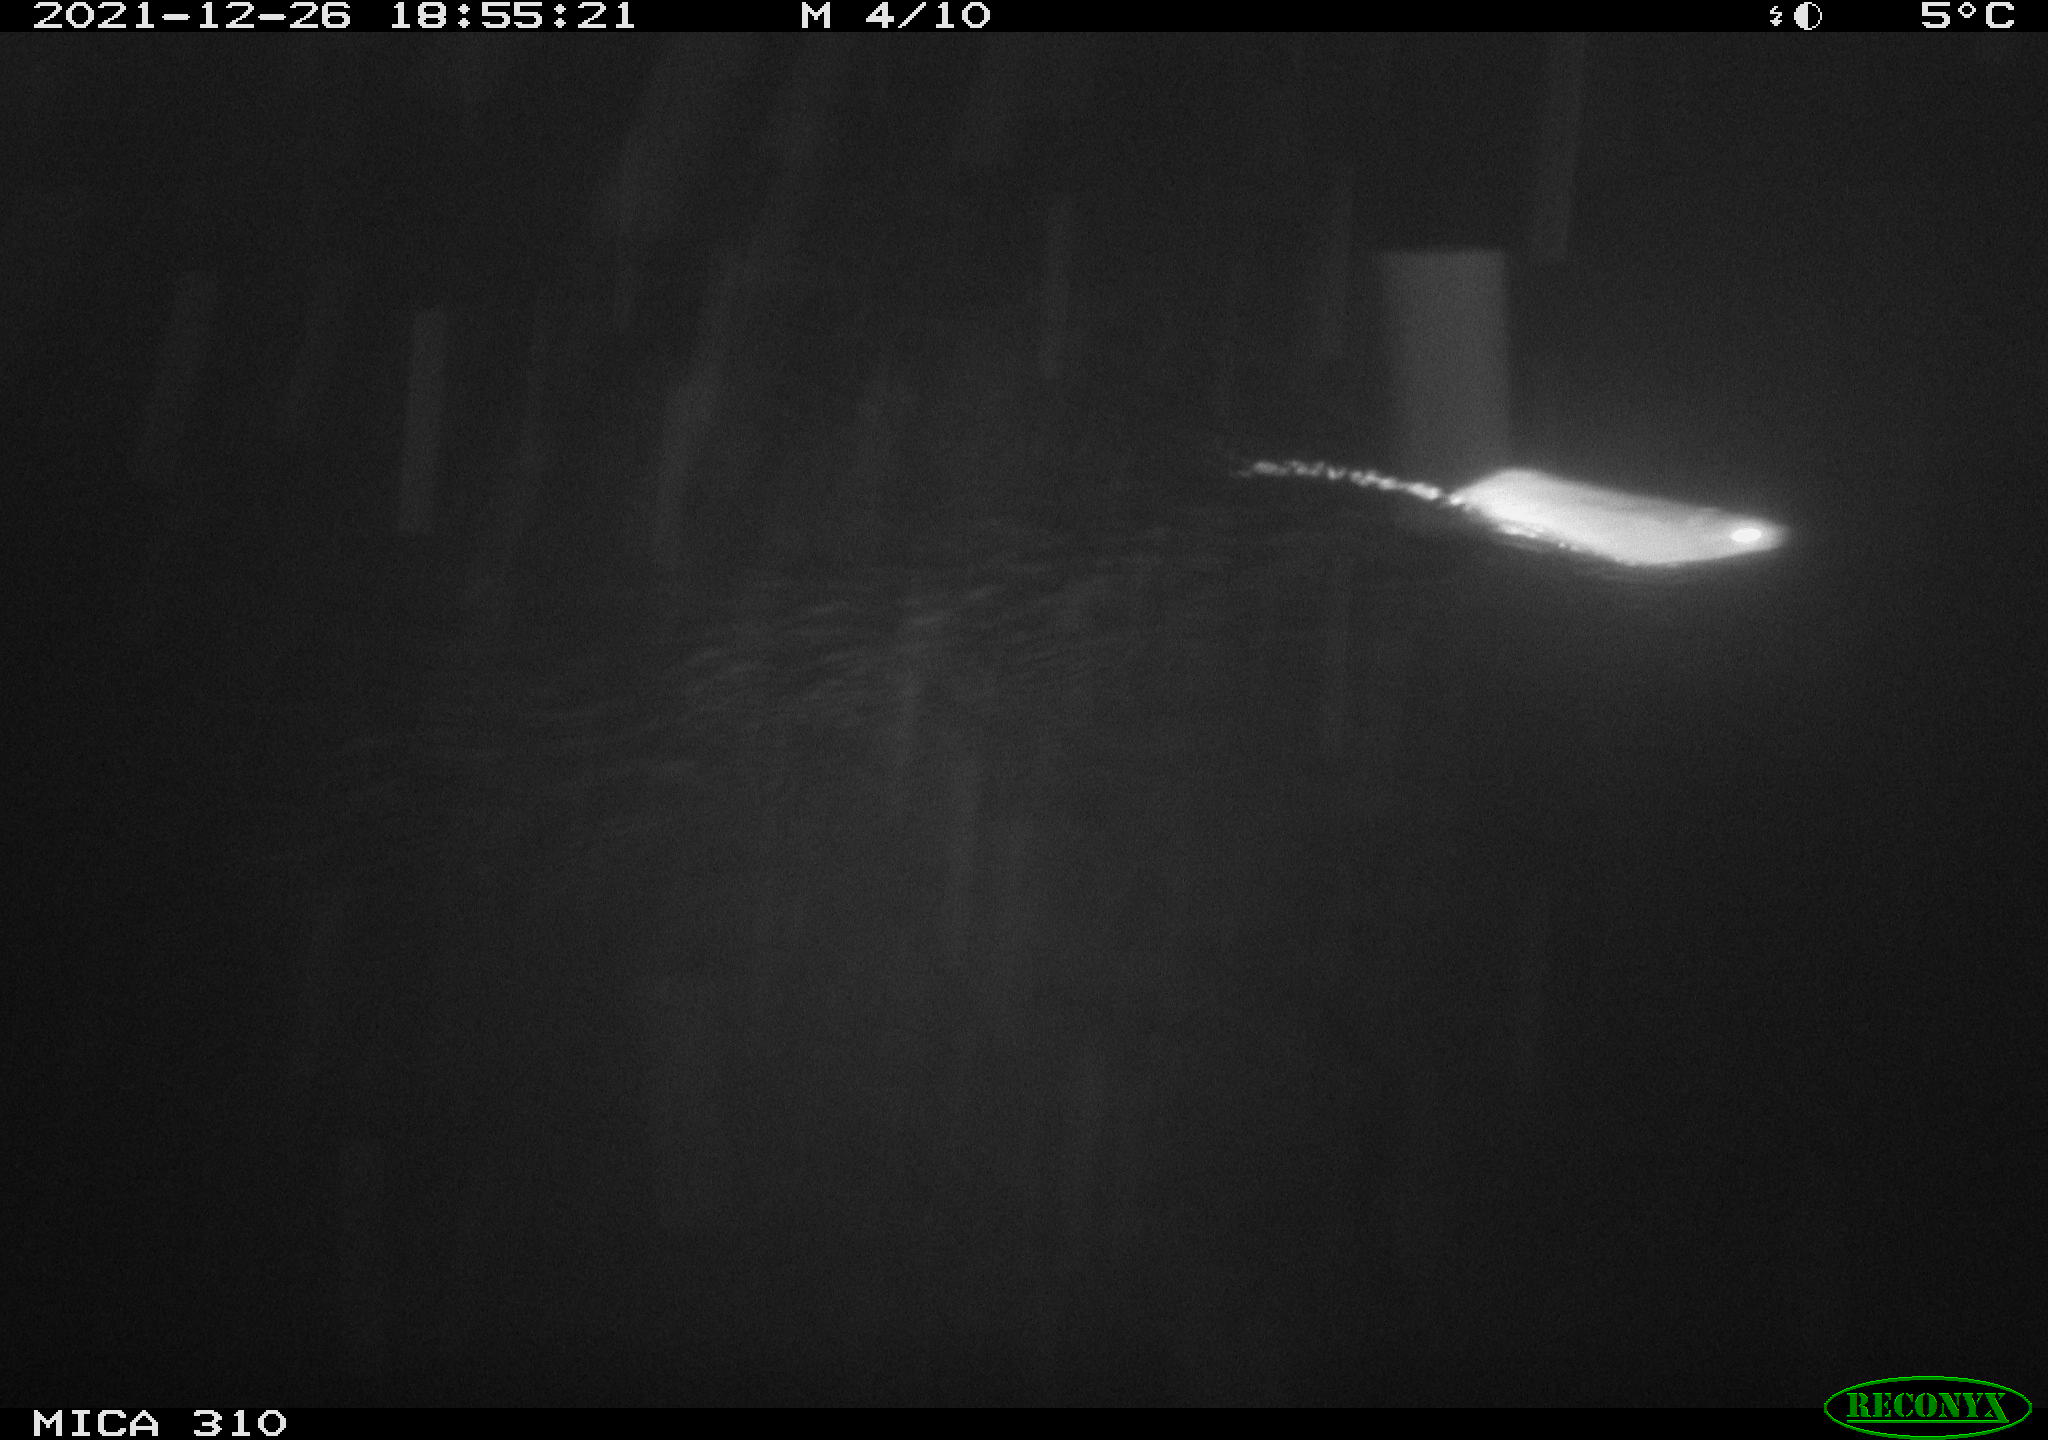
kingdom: Animalia
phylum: Chordata
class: Mammalia
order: Rodentia
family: Muridae
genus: Rattus
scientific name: Rattus norvegicus
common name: Brown rat
